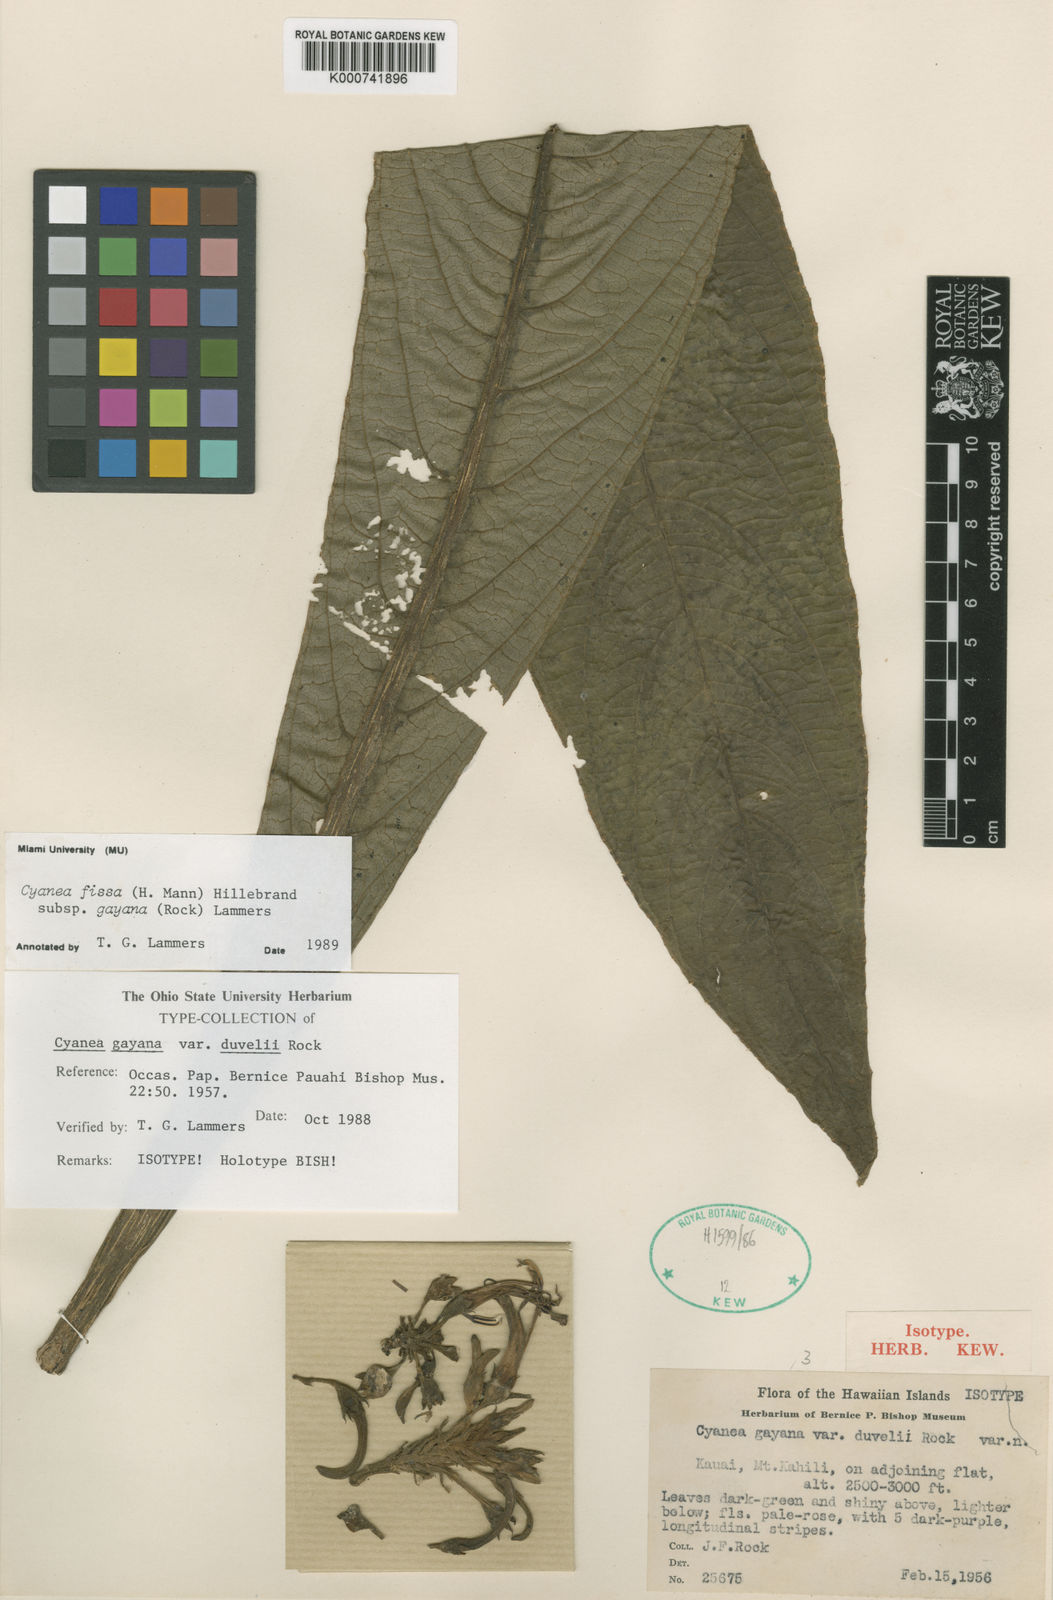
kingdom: Plantae
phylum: Tracheophyta
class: Magnoliopsida
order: Asterales
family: Campanulaceae
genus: Cyanea
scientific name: Cyanea fissa
